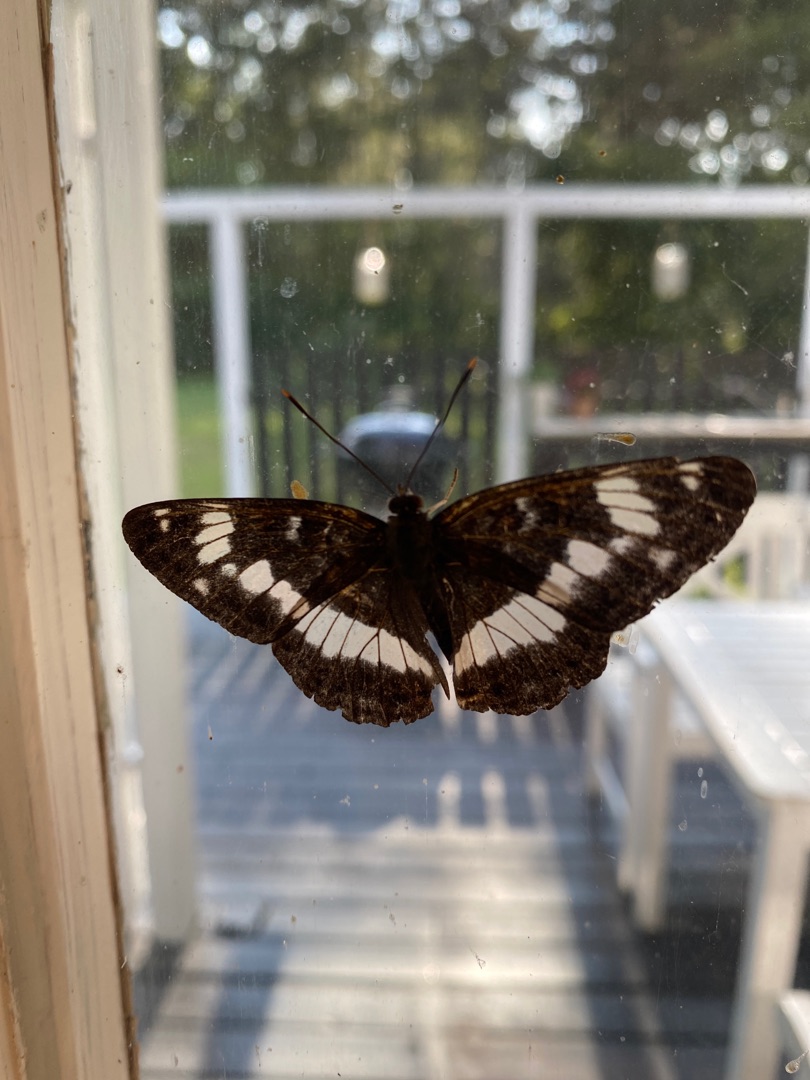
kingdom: Animalia
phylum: Arthropoda
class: Insecta
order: Lepidoptera
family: Nymphalidae
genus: Ladoga
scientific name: Ladoga camilla
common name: Hvid admiral
